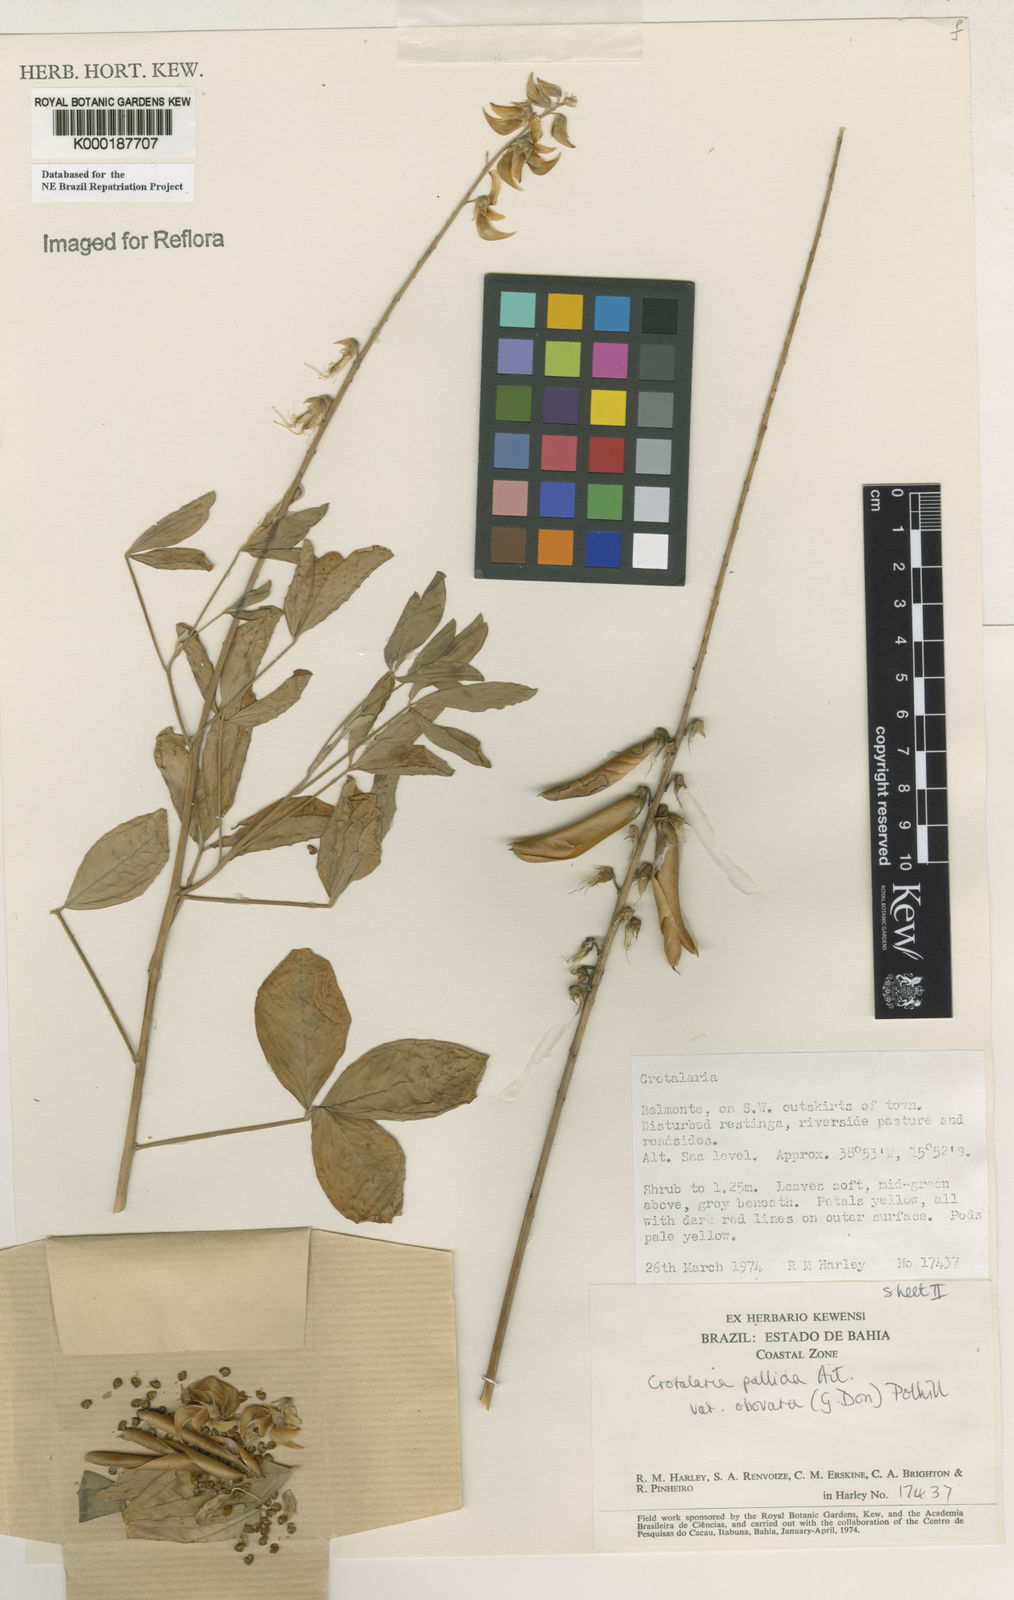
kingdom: Plantae
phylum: Tracheophyta
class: Magnoliopsida
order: Fabales
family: Fabaceae
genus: Crotalaria
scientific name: Crotalaria pallida
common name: Smooth rattlebox
